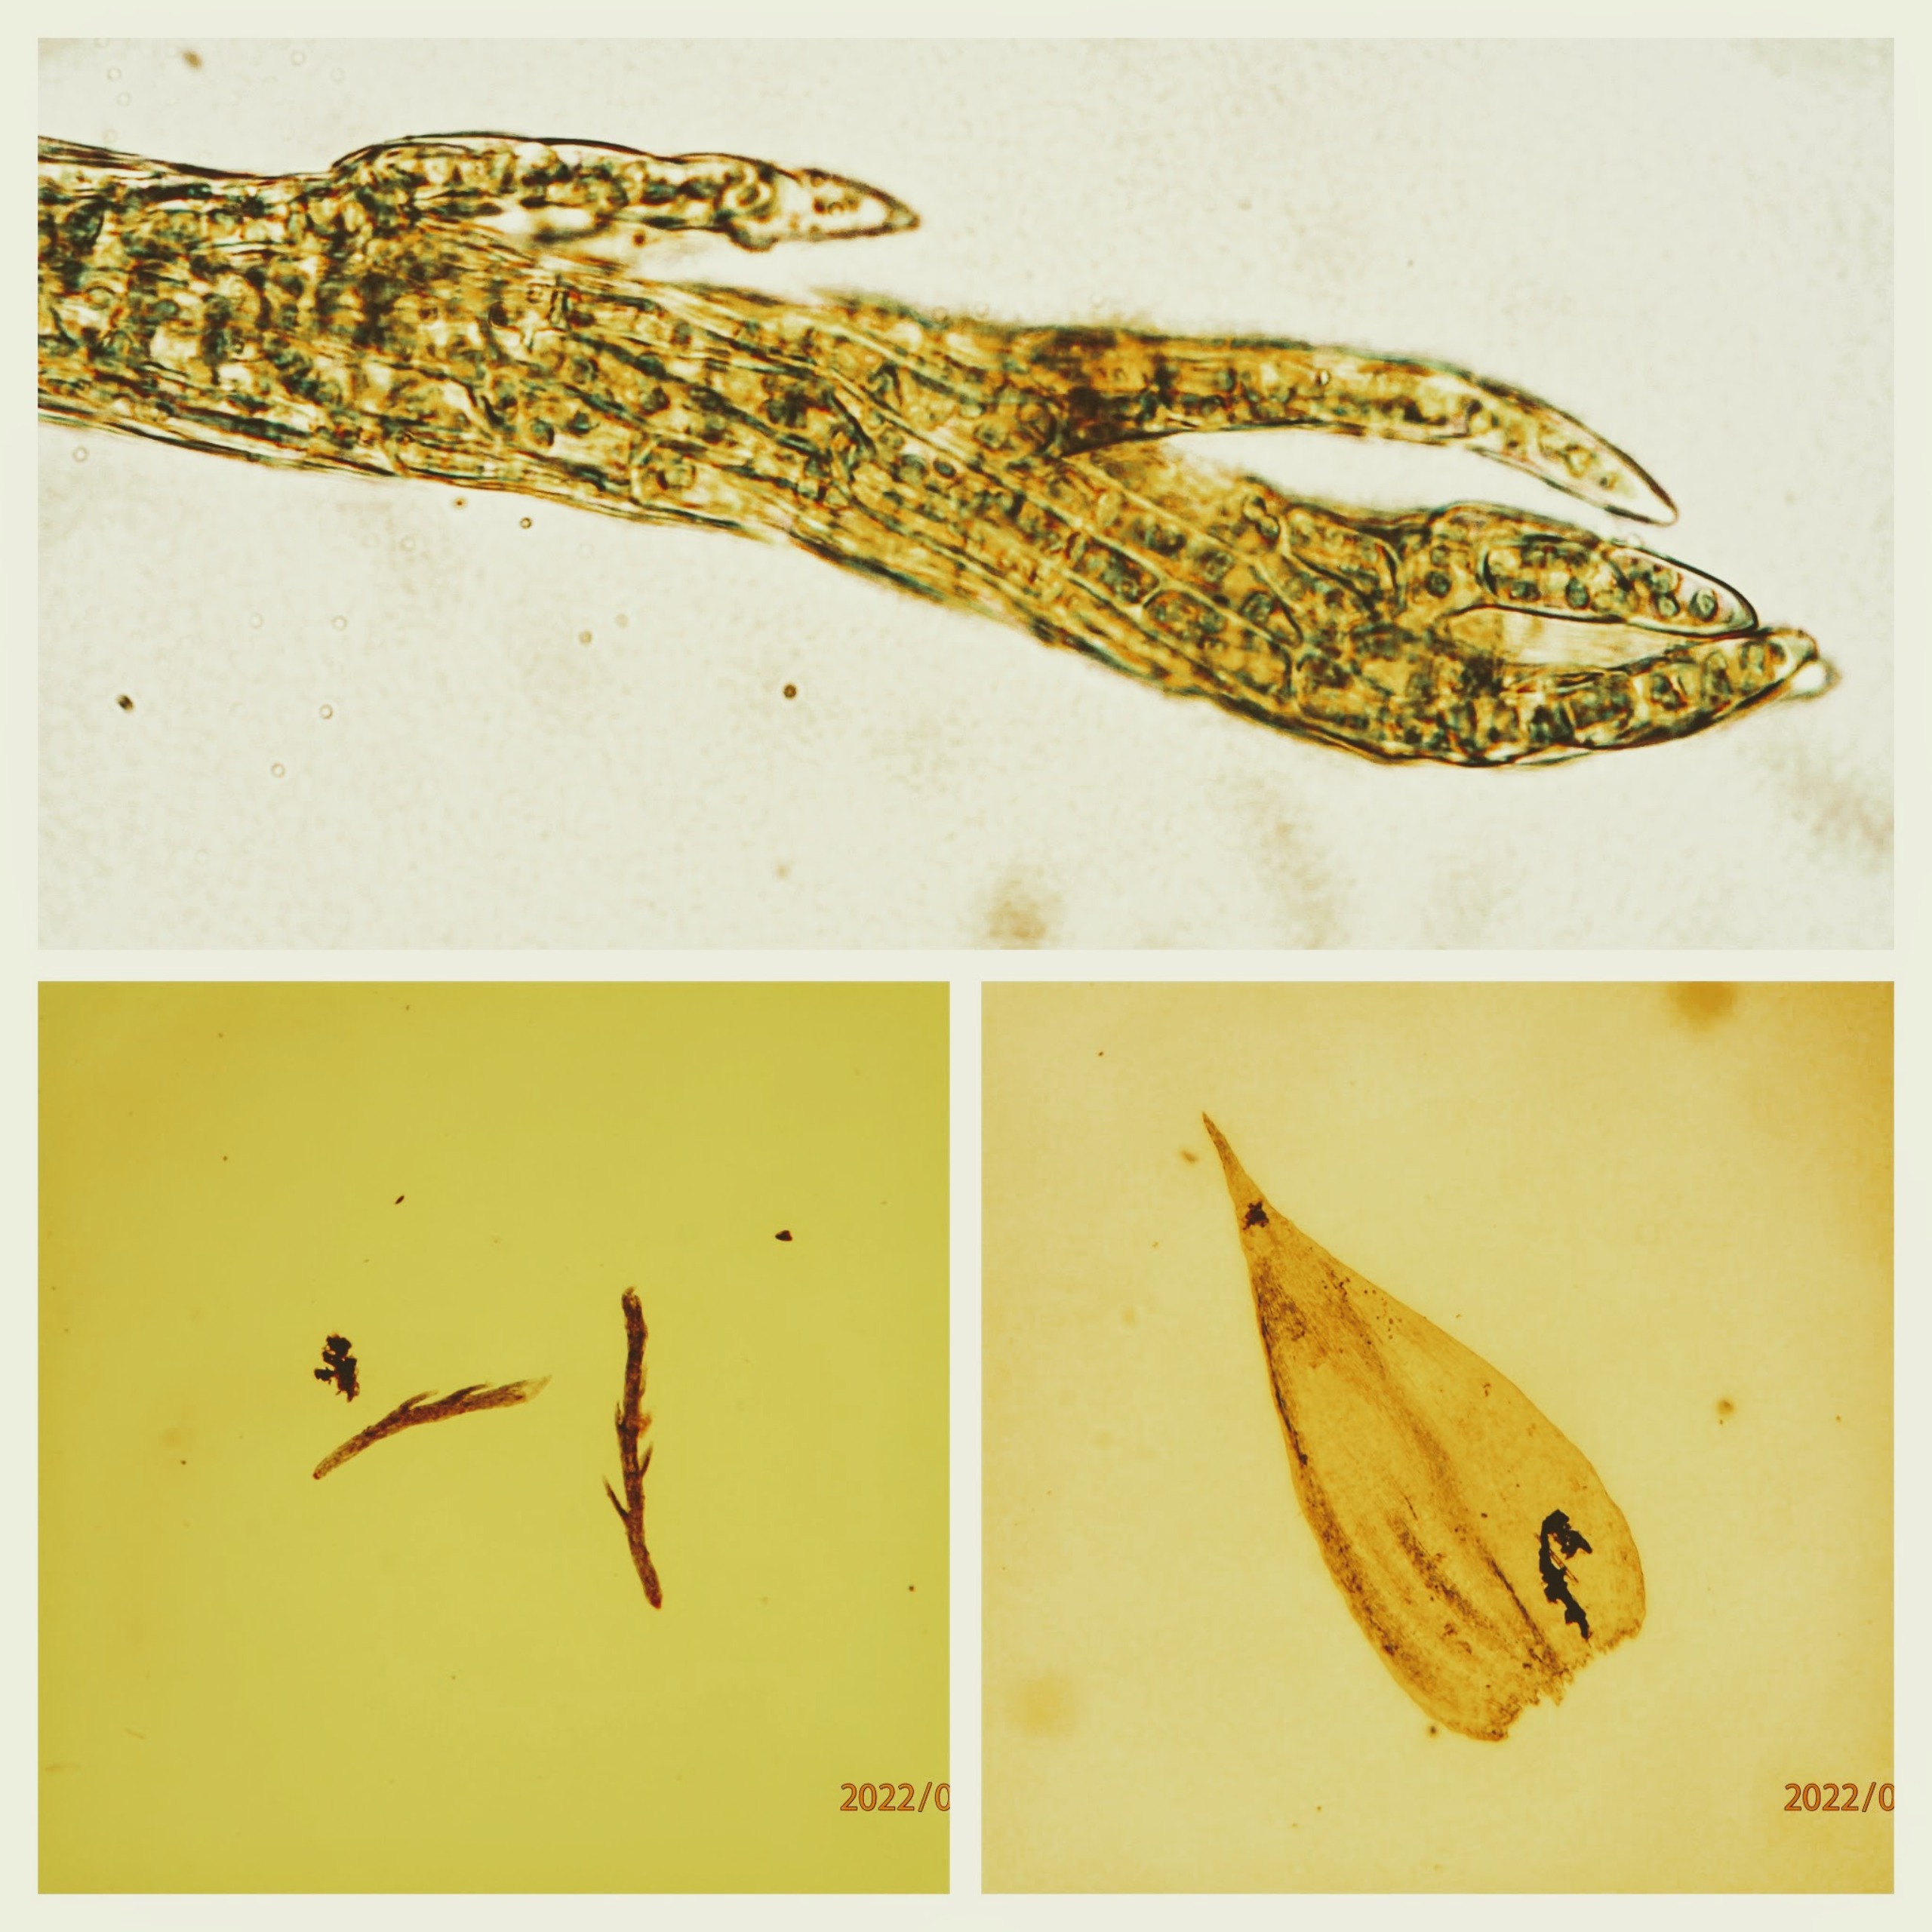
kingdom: Plantae
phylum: Bryophyta
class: Bryopsida
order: Hypnales
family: Plagiotheciaceae
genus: Pseudotaxiphyllum
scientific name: Pseudotaxiphyllum elegans
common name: Skinnende ynglegren
